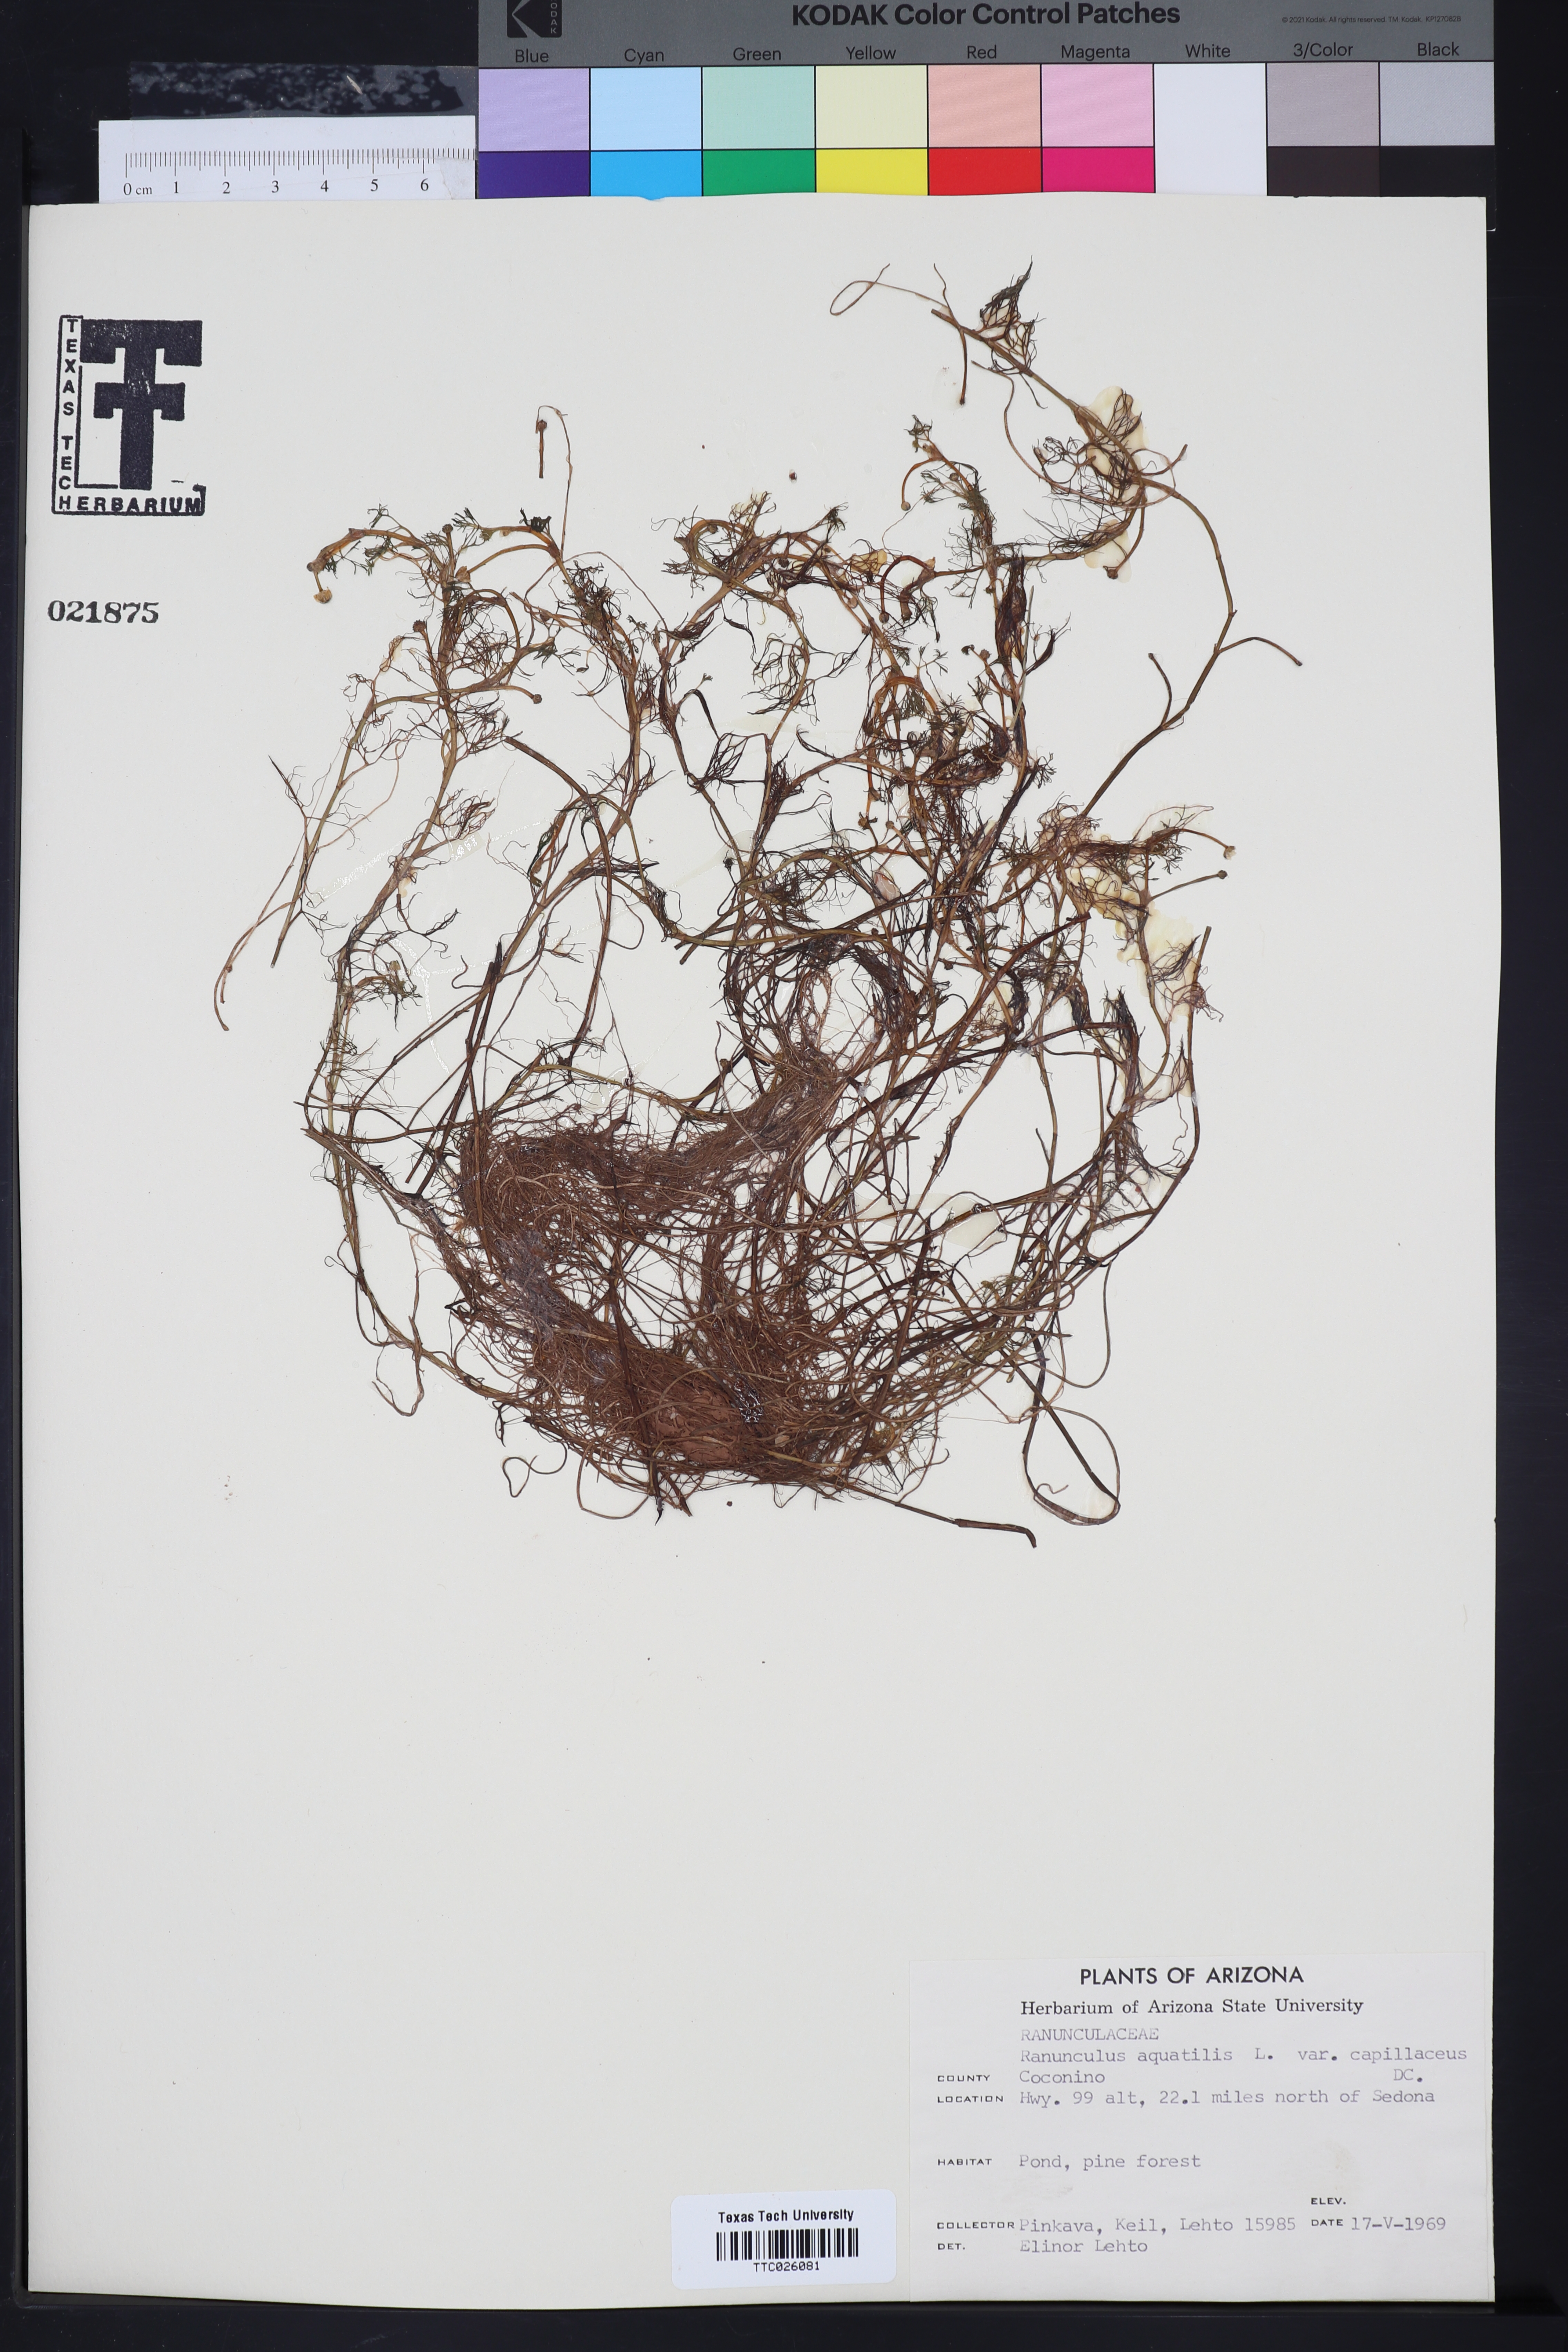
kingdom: Plantae
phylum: Tracheophyta
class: Magnoliopsida
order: Ranunculales
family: Ranunculaceae
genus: Ranunculus
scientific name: Ranunculus
